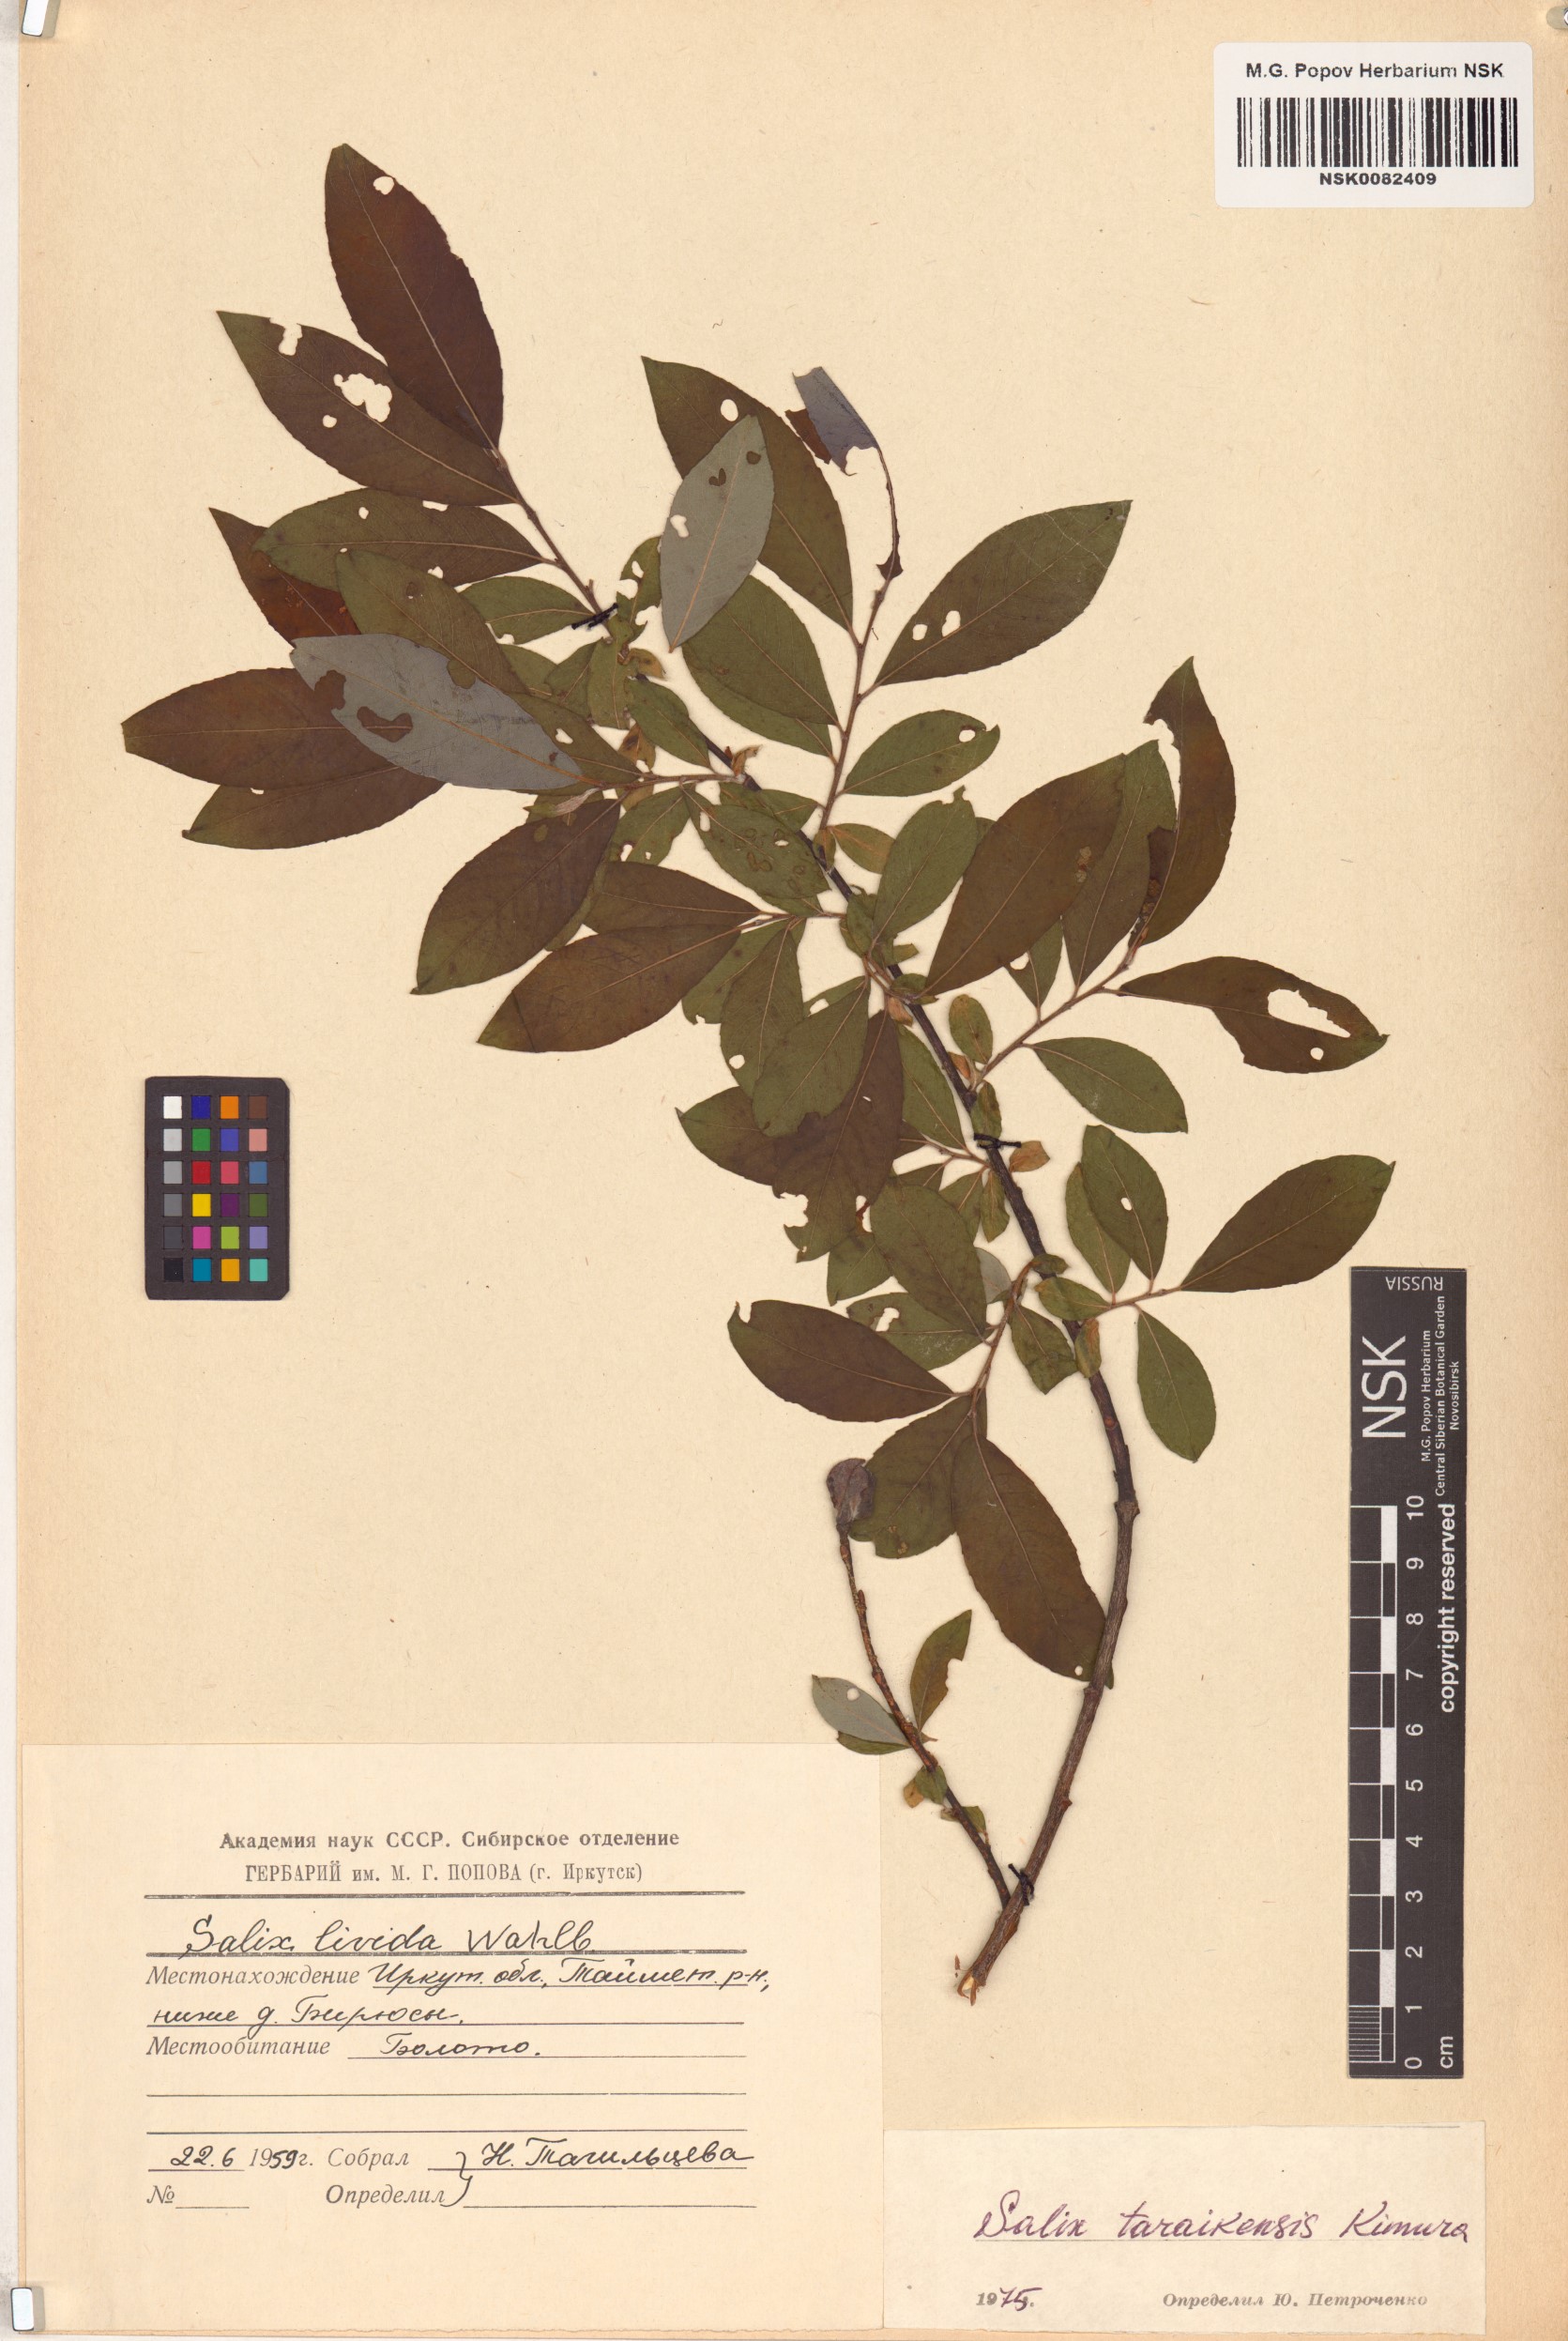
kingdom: Plantae
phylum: Tracheophyta
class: Magnoliopsida
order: Malpighiales
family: Salicaceae
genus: Salix
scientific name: Salix taraikensis
